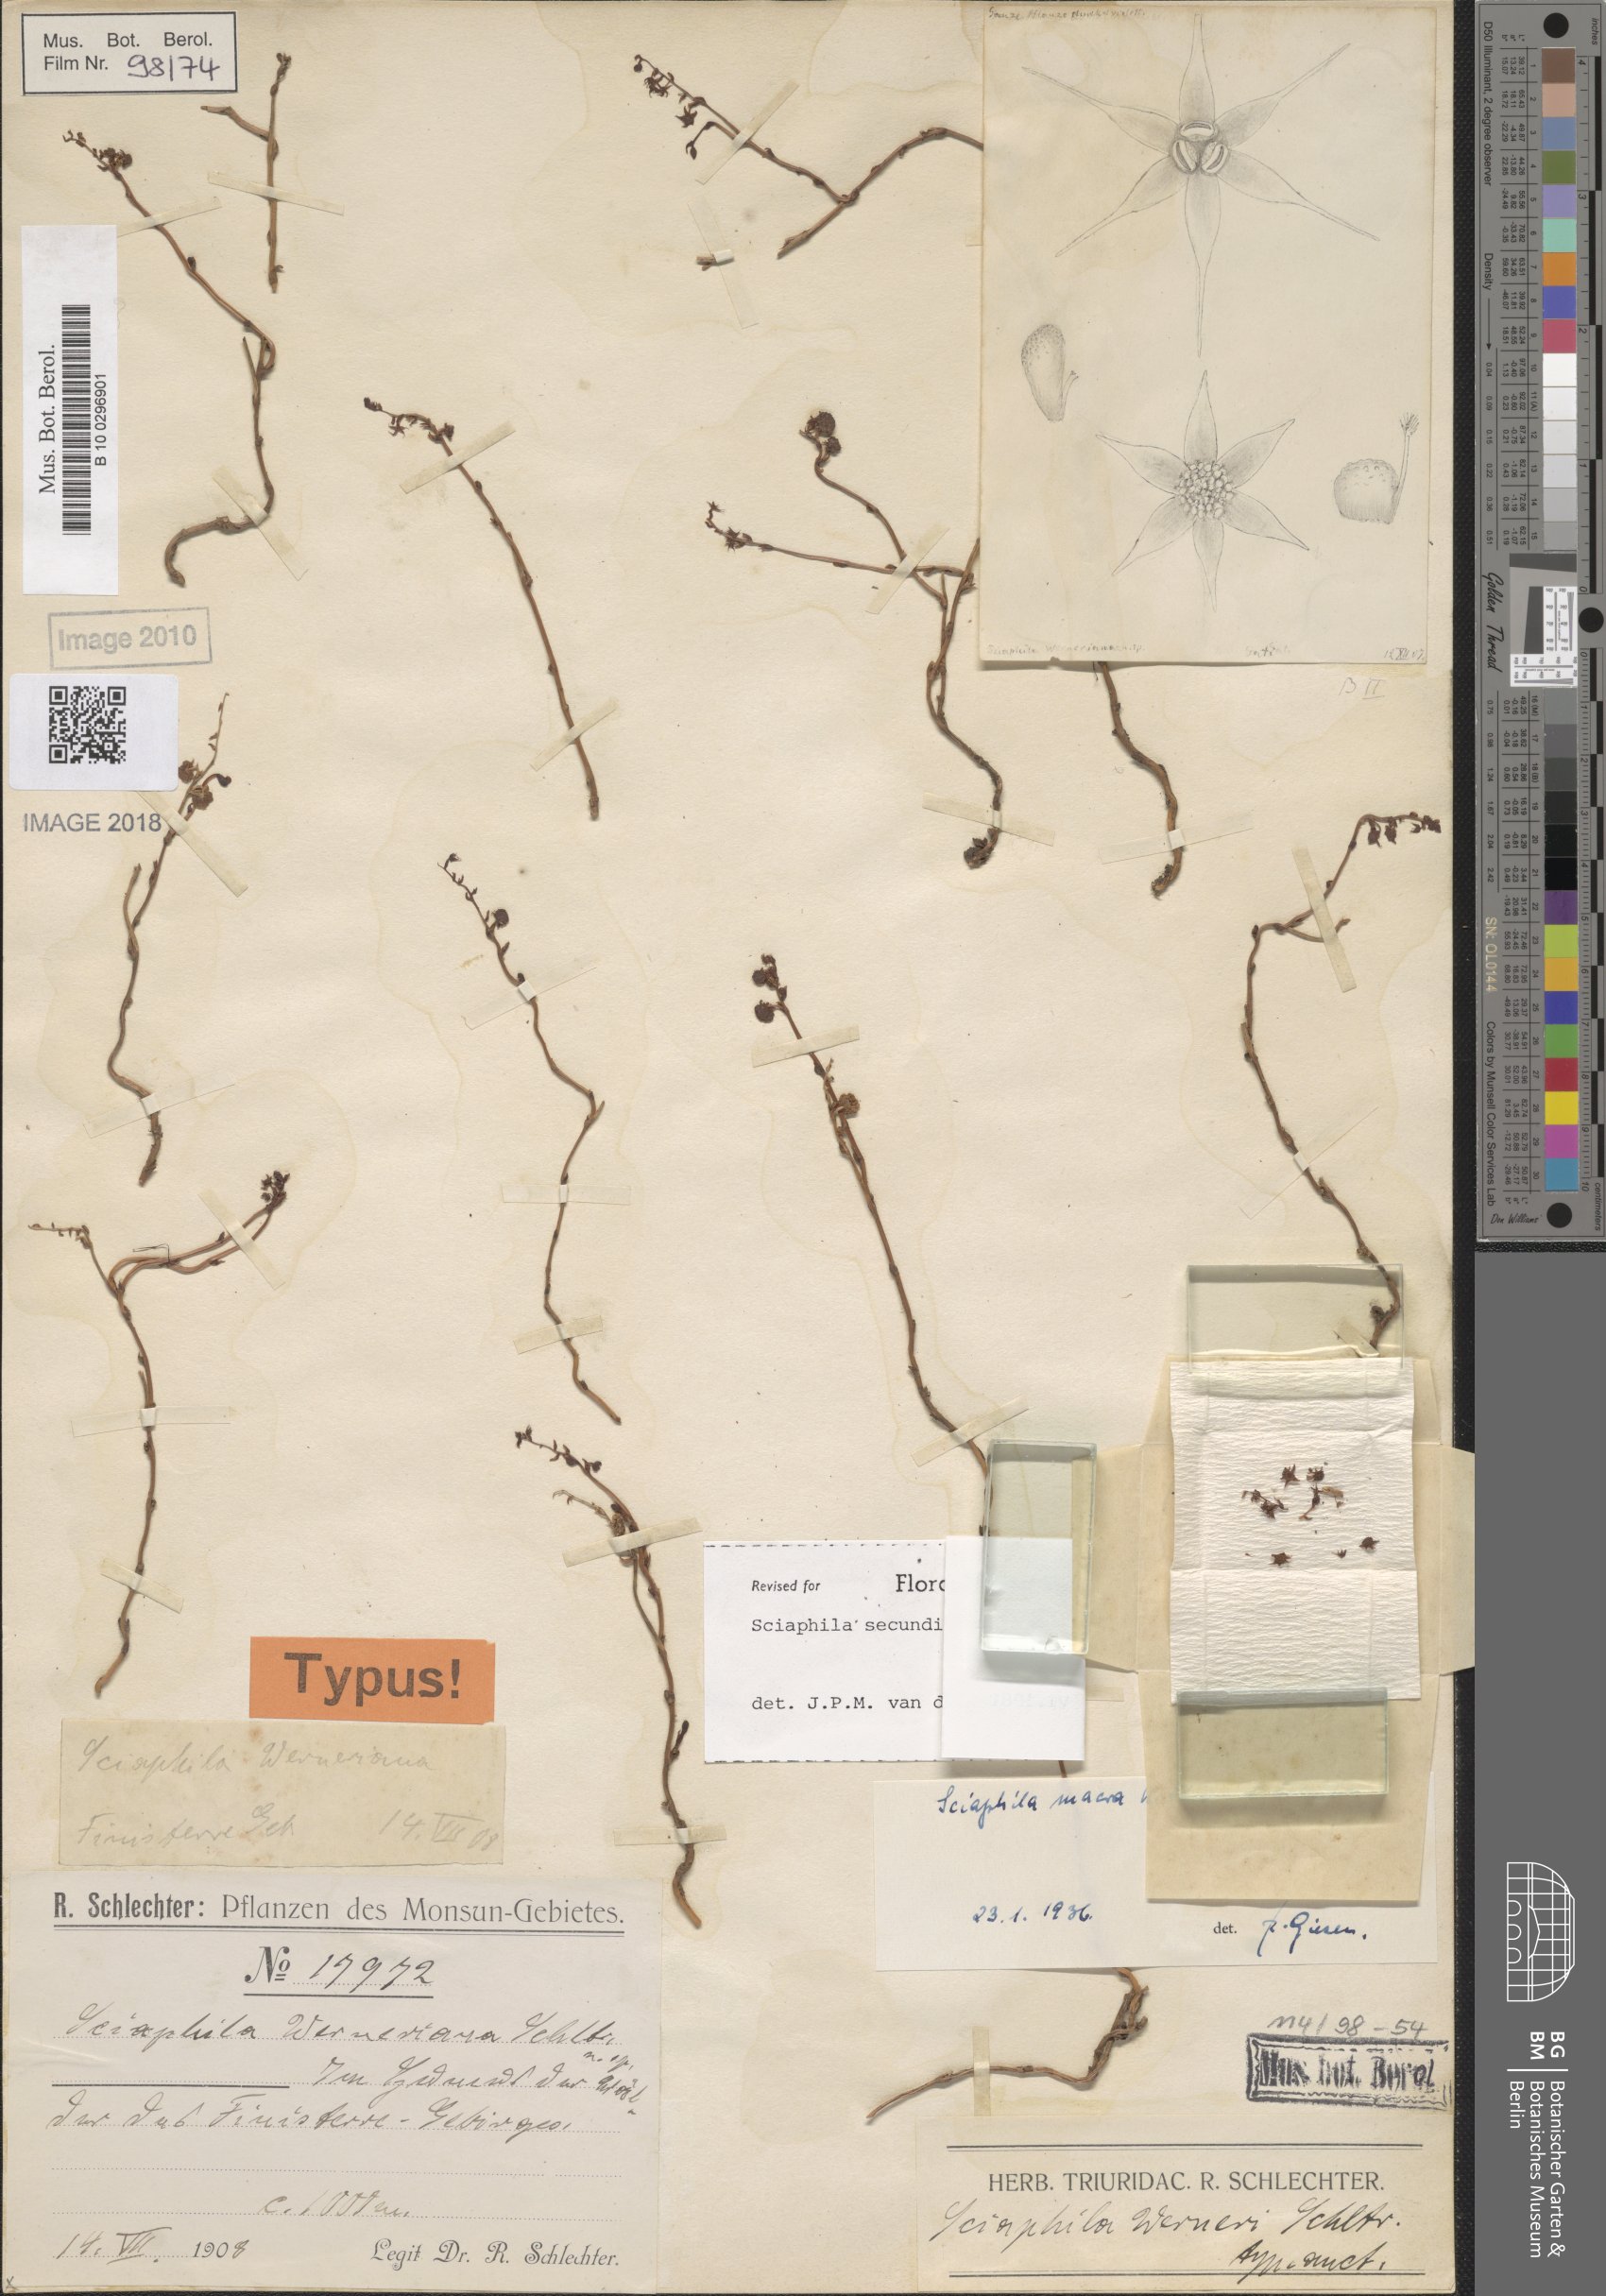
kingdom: Plantae
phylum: Tracheophyta
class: Liliopsida
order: Pandanales
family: Triuridaceae
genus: Sciaphila
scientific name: Sciaphila secundiflora
